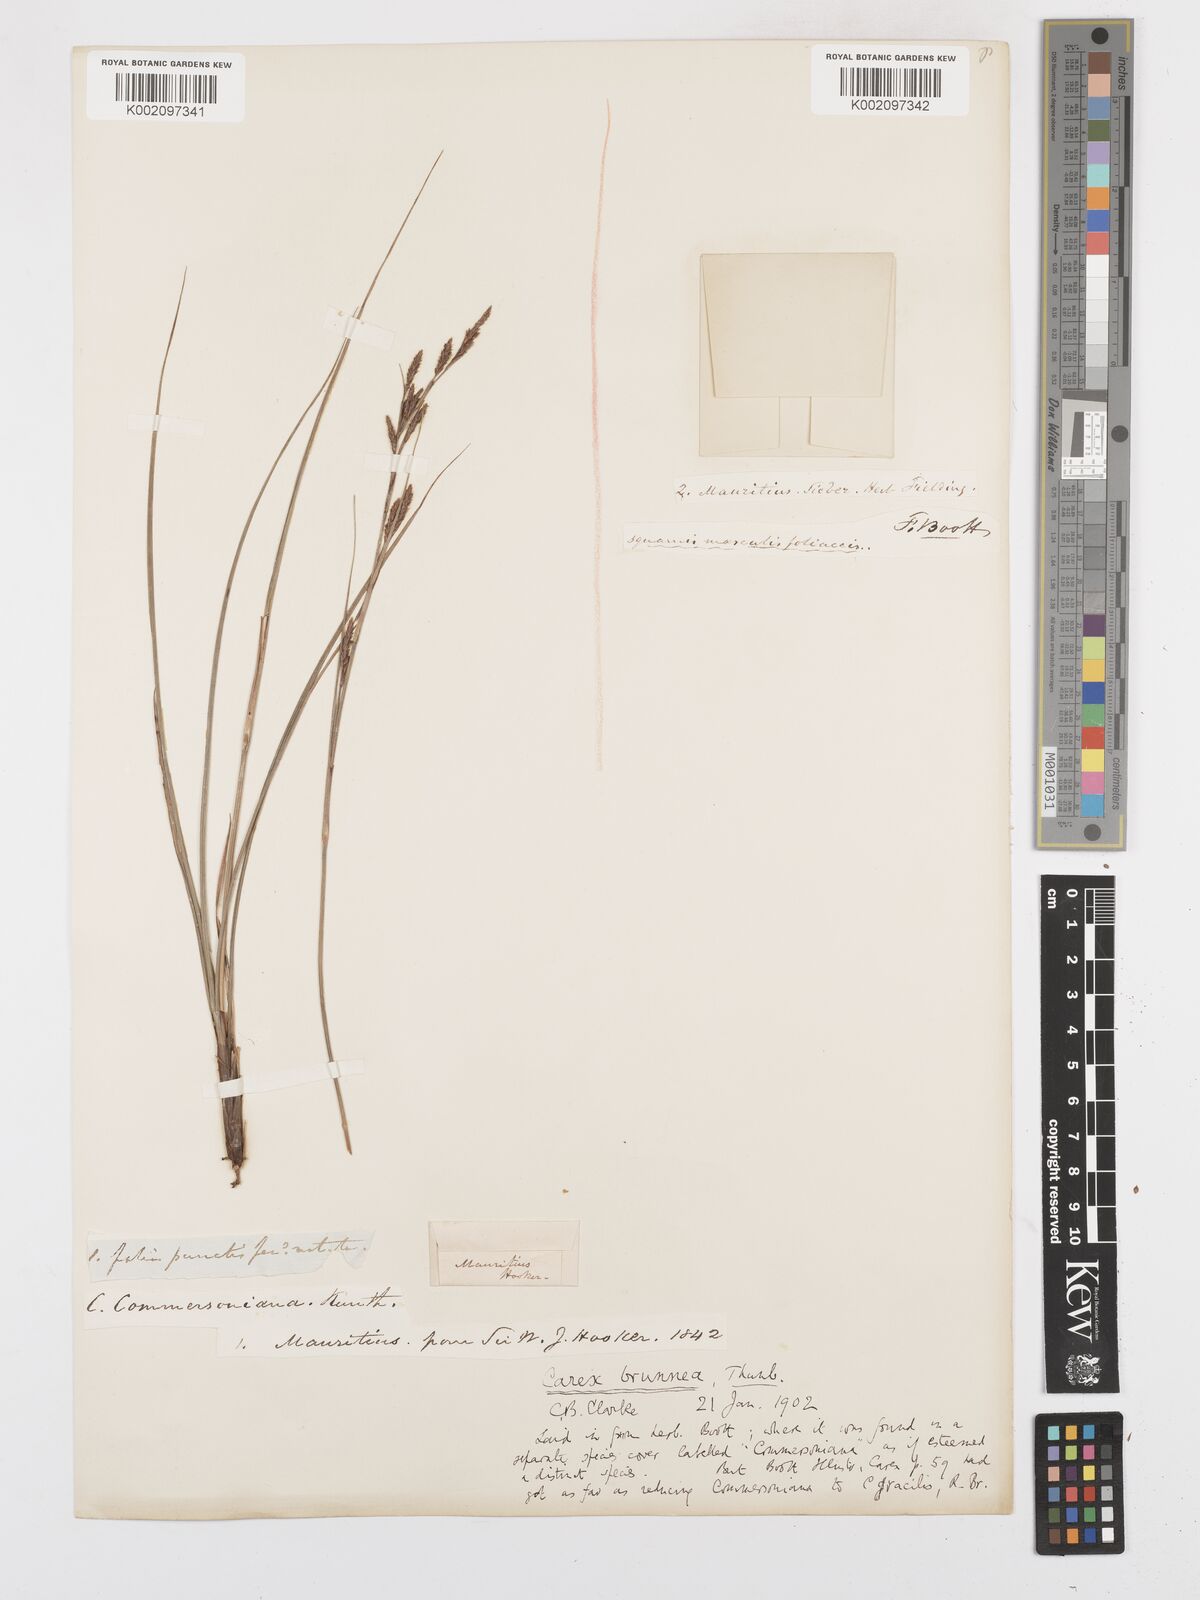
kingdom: Plantae
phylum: Tracheophyta
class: Liliopsida
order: Poales
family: Cyperaceae
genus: Carex
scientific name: Carex brunnea
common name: Greater brown sedge
